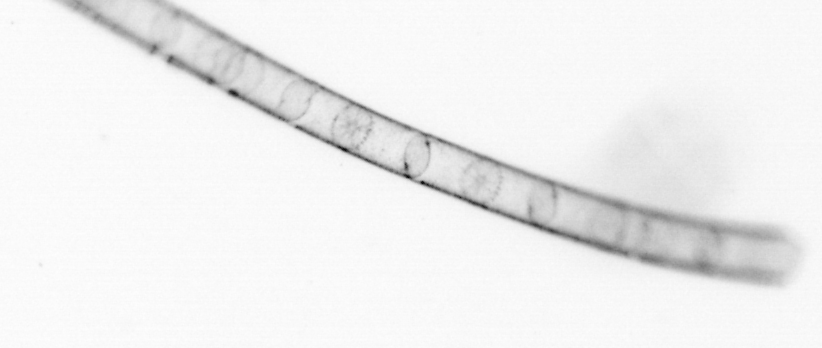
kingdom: Chromista
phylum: Ochrophyta
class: Bacillariophyceae
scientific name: Bacillariophyceae
